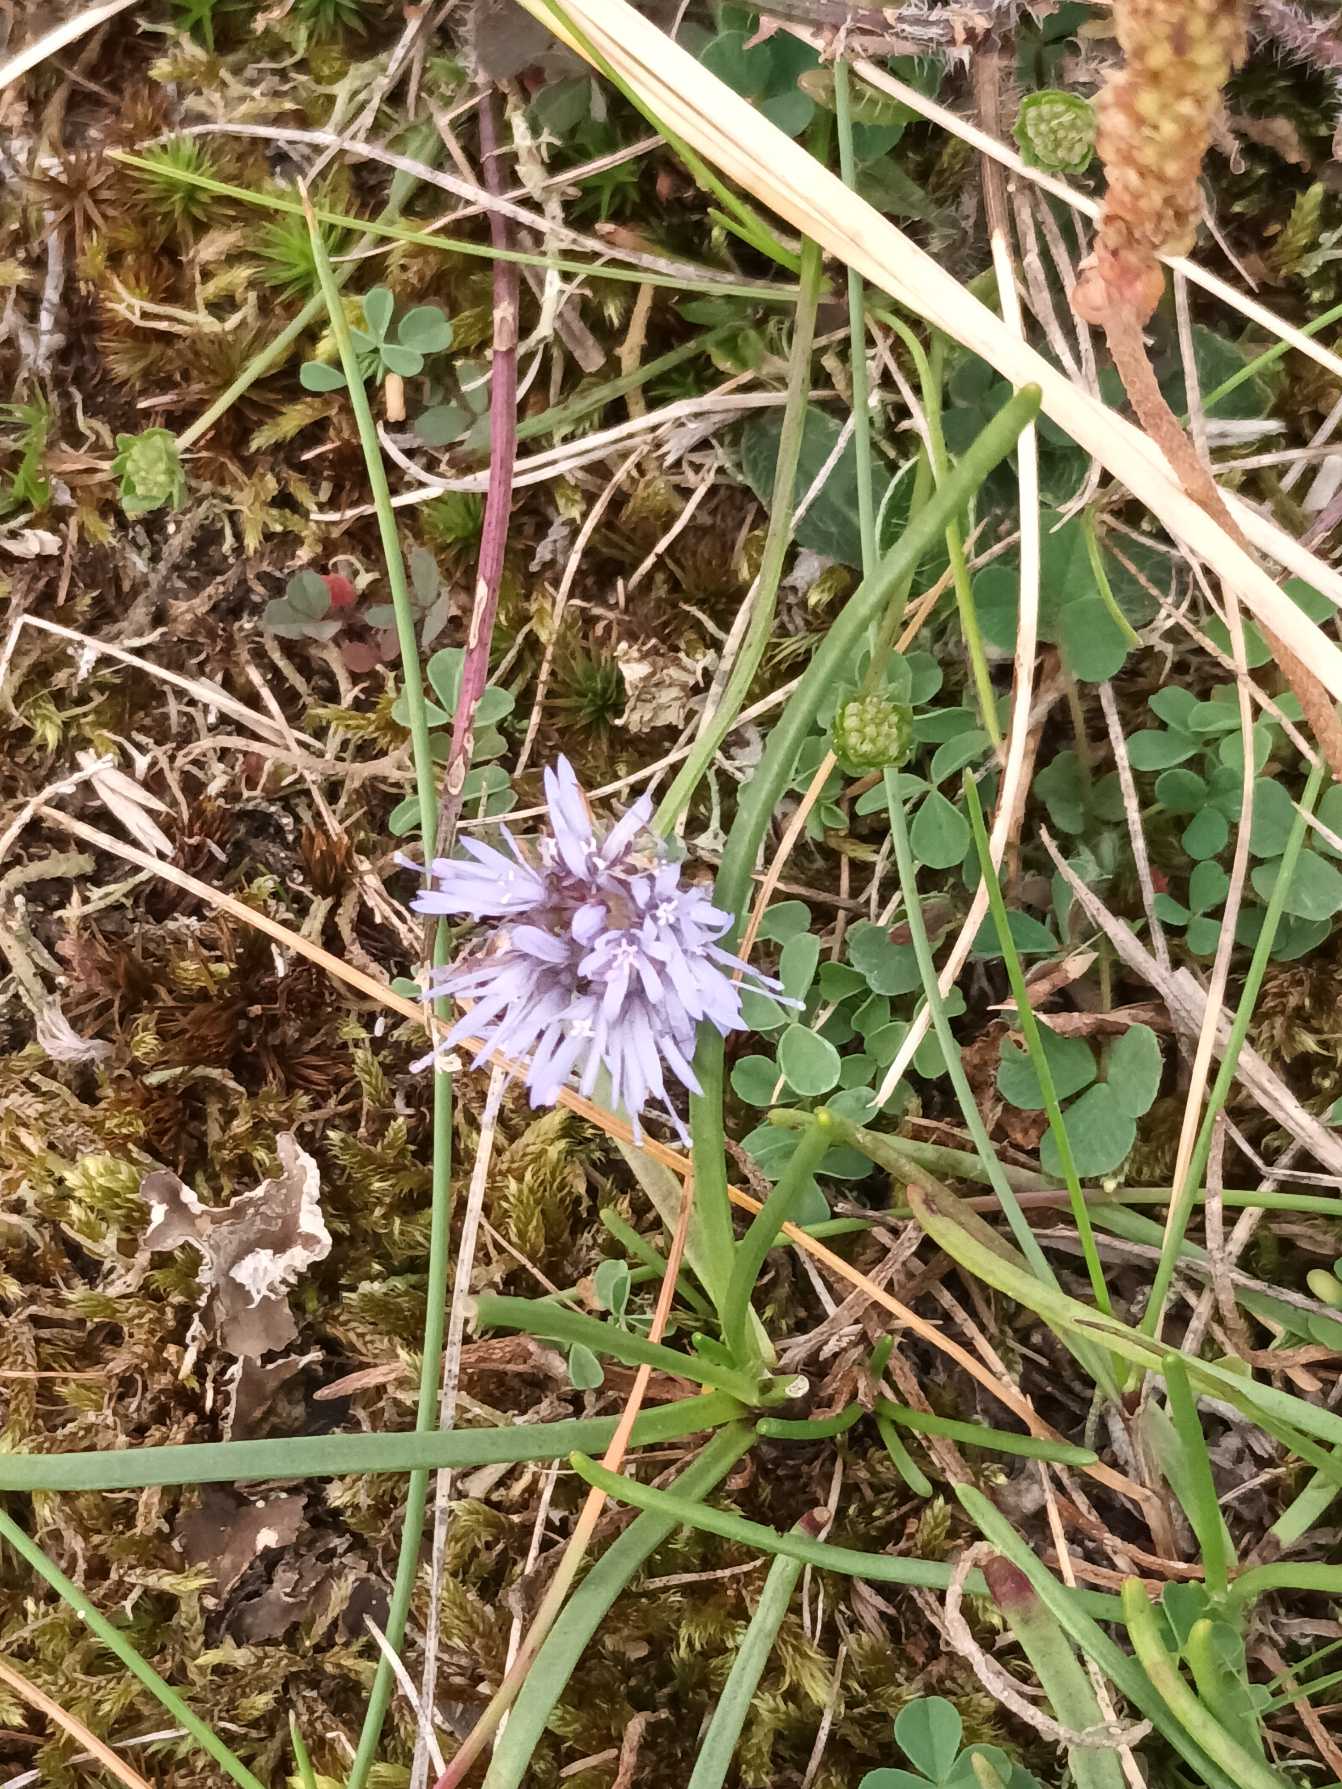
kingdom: Plantae
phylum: Tracheophyta
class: Magnoliopsida
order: Asterales
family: Campanulaceae
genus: Jasione
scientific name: Jasione montana
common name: Blåmunke
